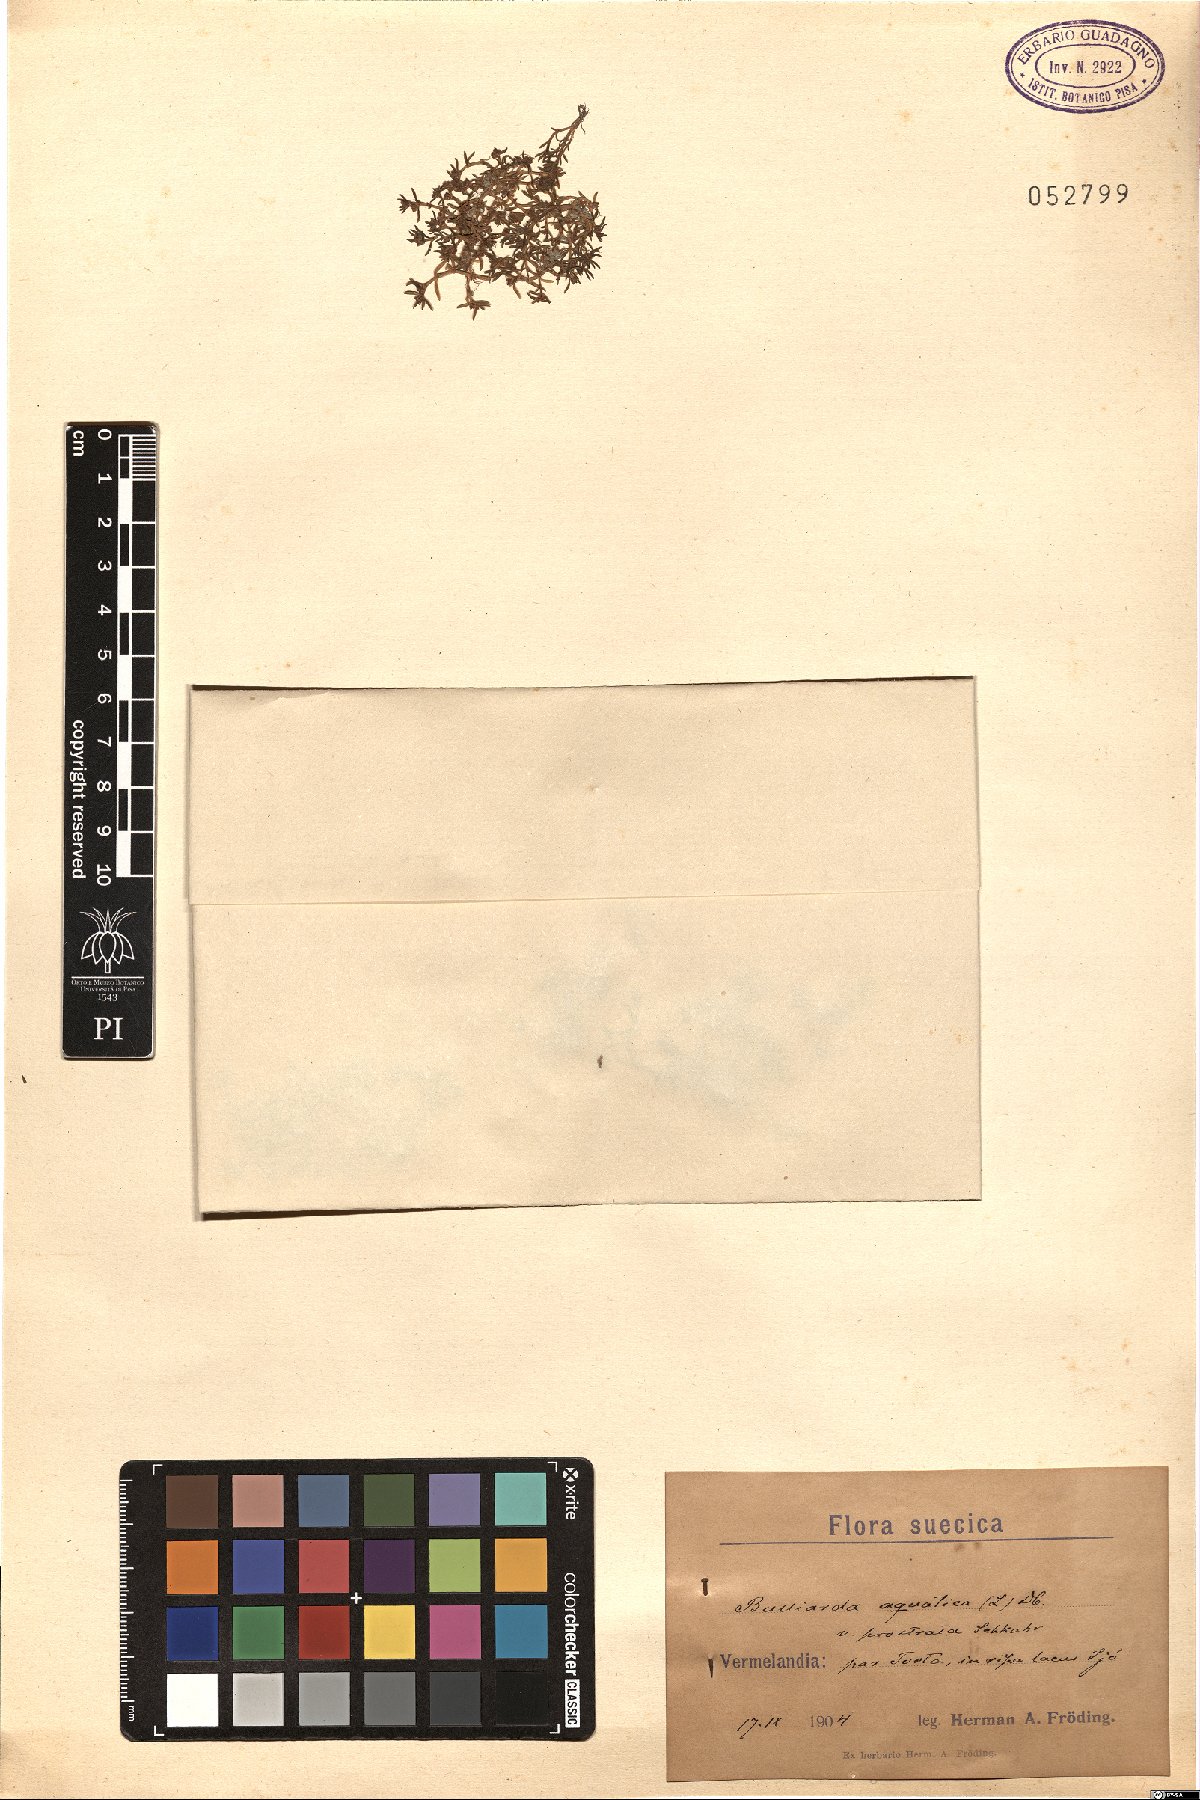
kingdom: Plantae
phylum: Tracheophyta
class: Magnoliopsida
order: Saxifragales
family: Crassulaceae
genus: Crassula
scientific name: Crassula aquatica
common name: Pigmyweed
